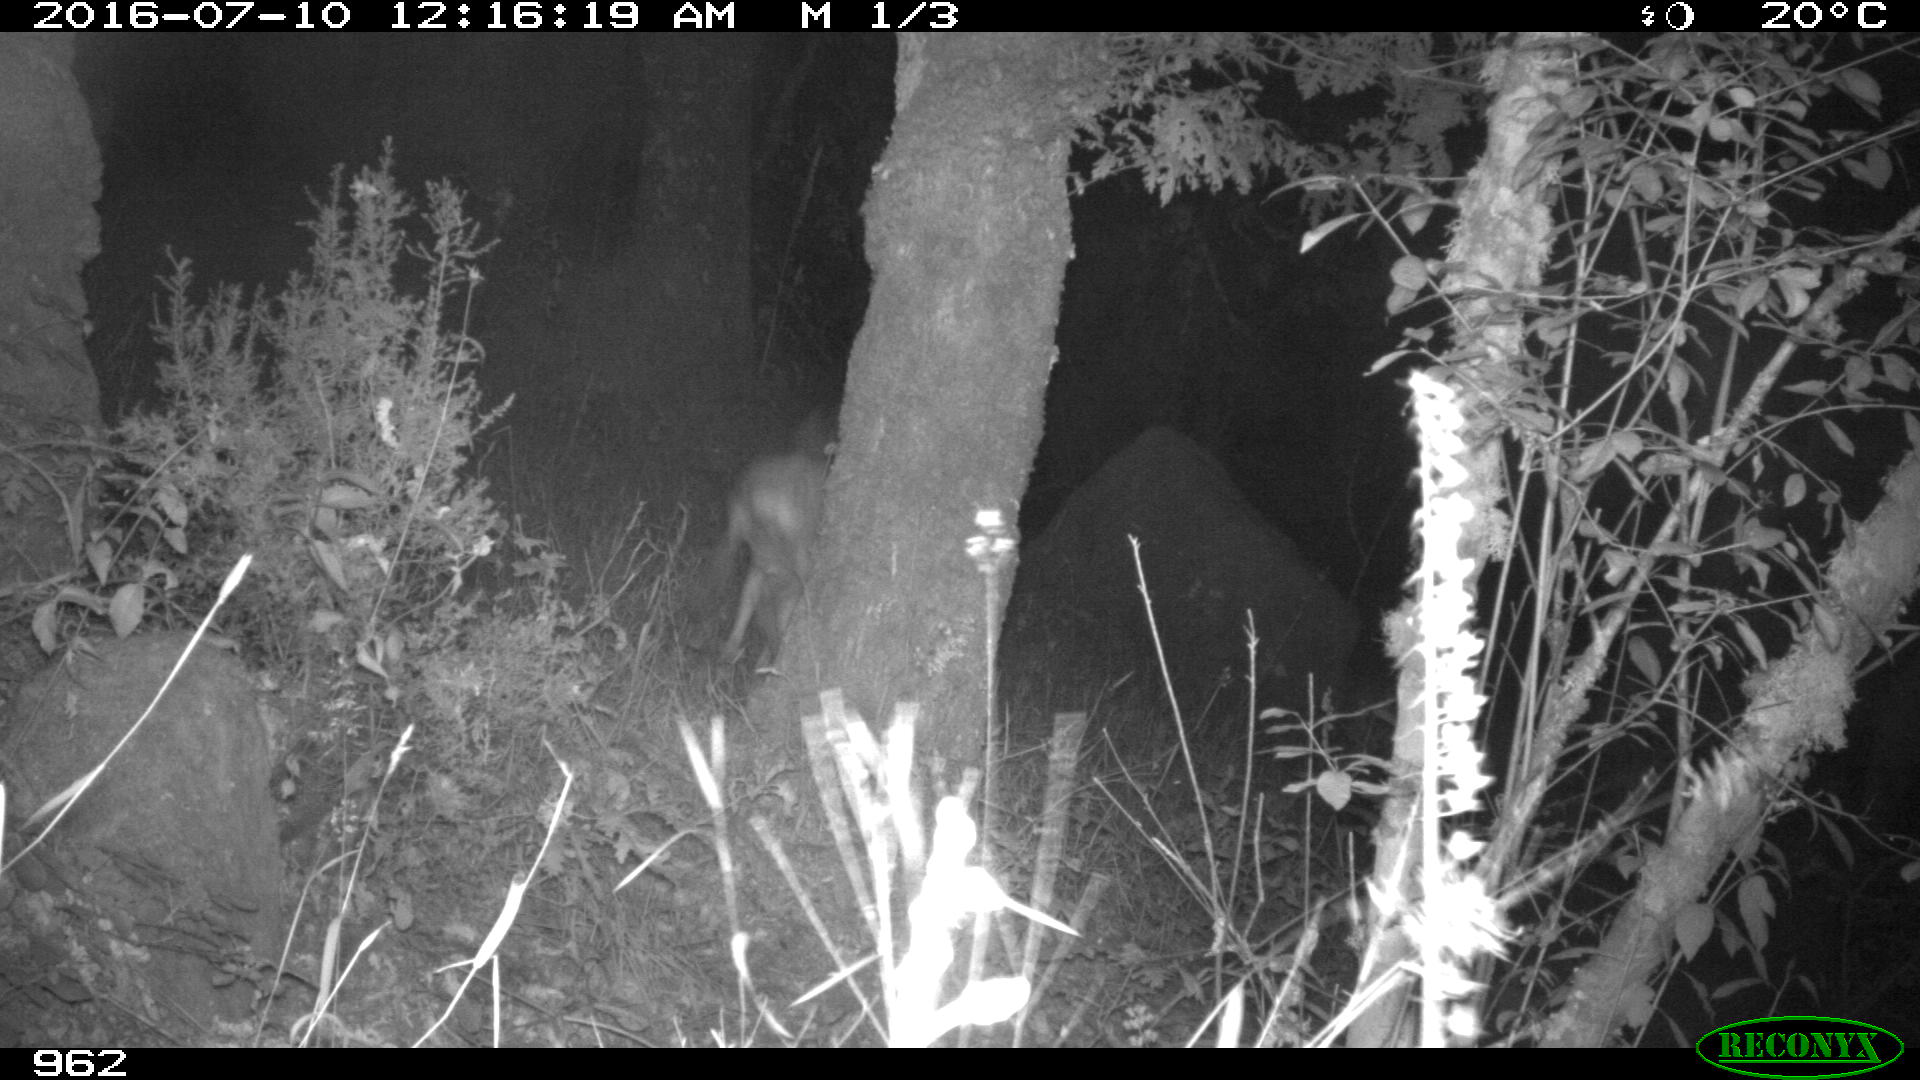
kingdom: Animalia
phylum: Chordata
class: Mammalia
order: Artiodactyla
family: Cervidae
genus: Capreolus
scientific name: Capreolus capreolus
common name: Western roe deer
